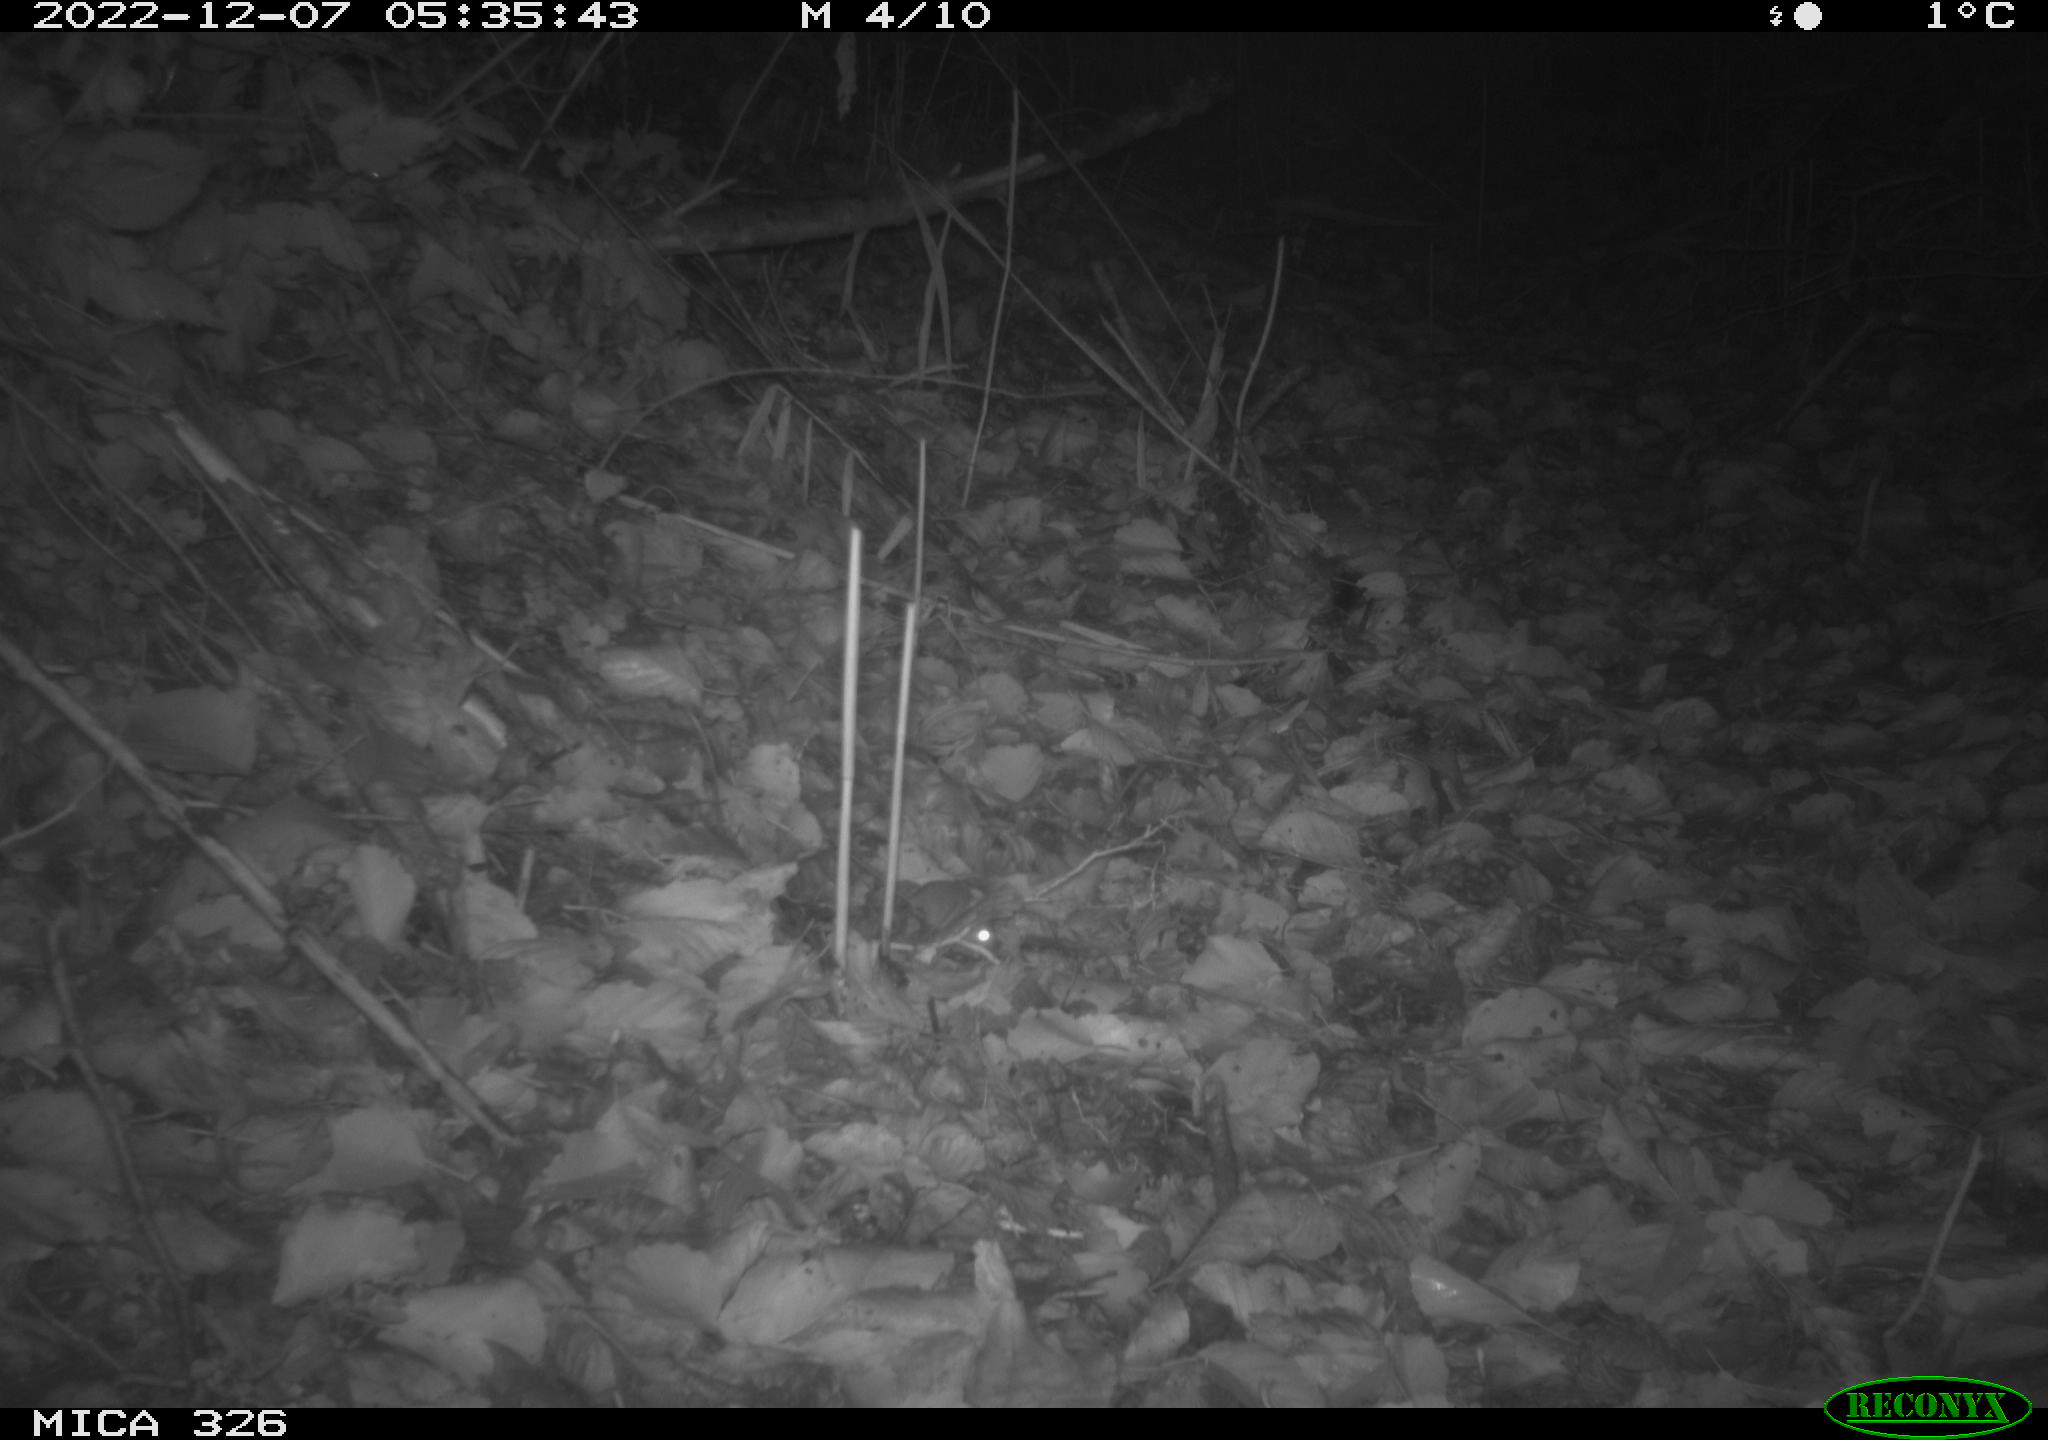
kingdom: Animalia
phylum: Chordata
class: Mammalia
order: Rodentia
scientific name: Rodentia
